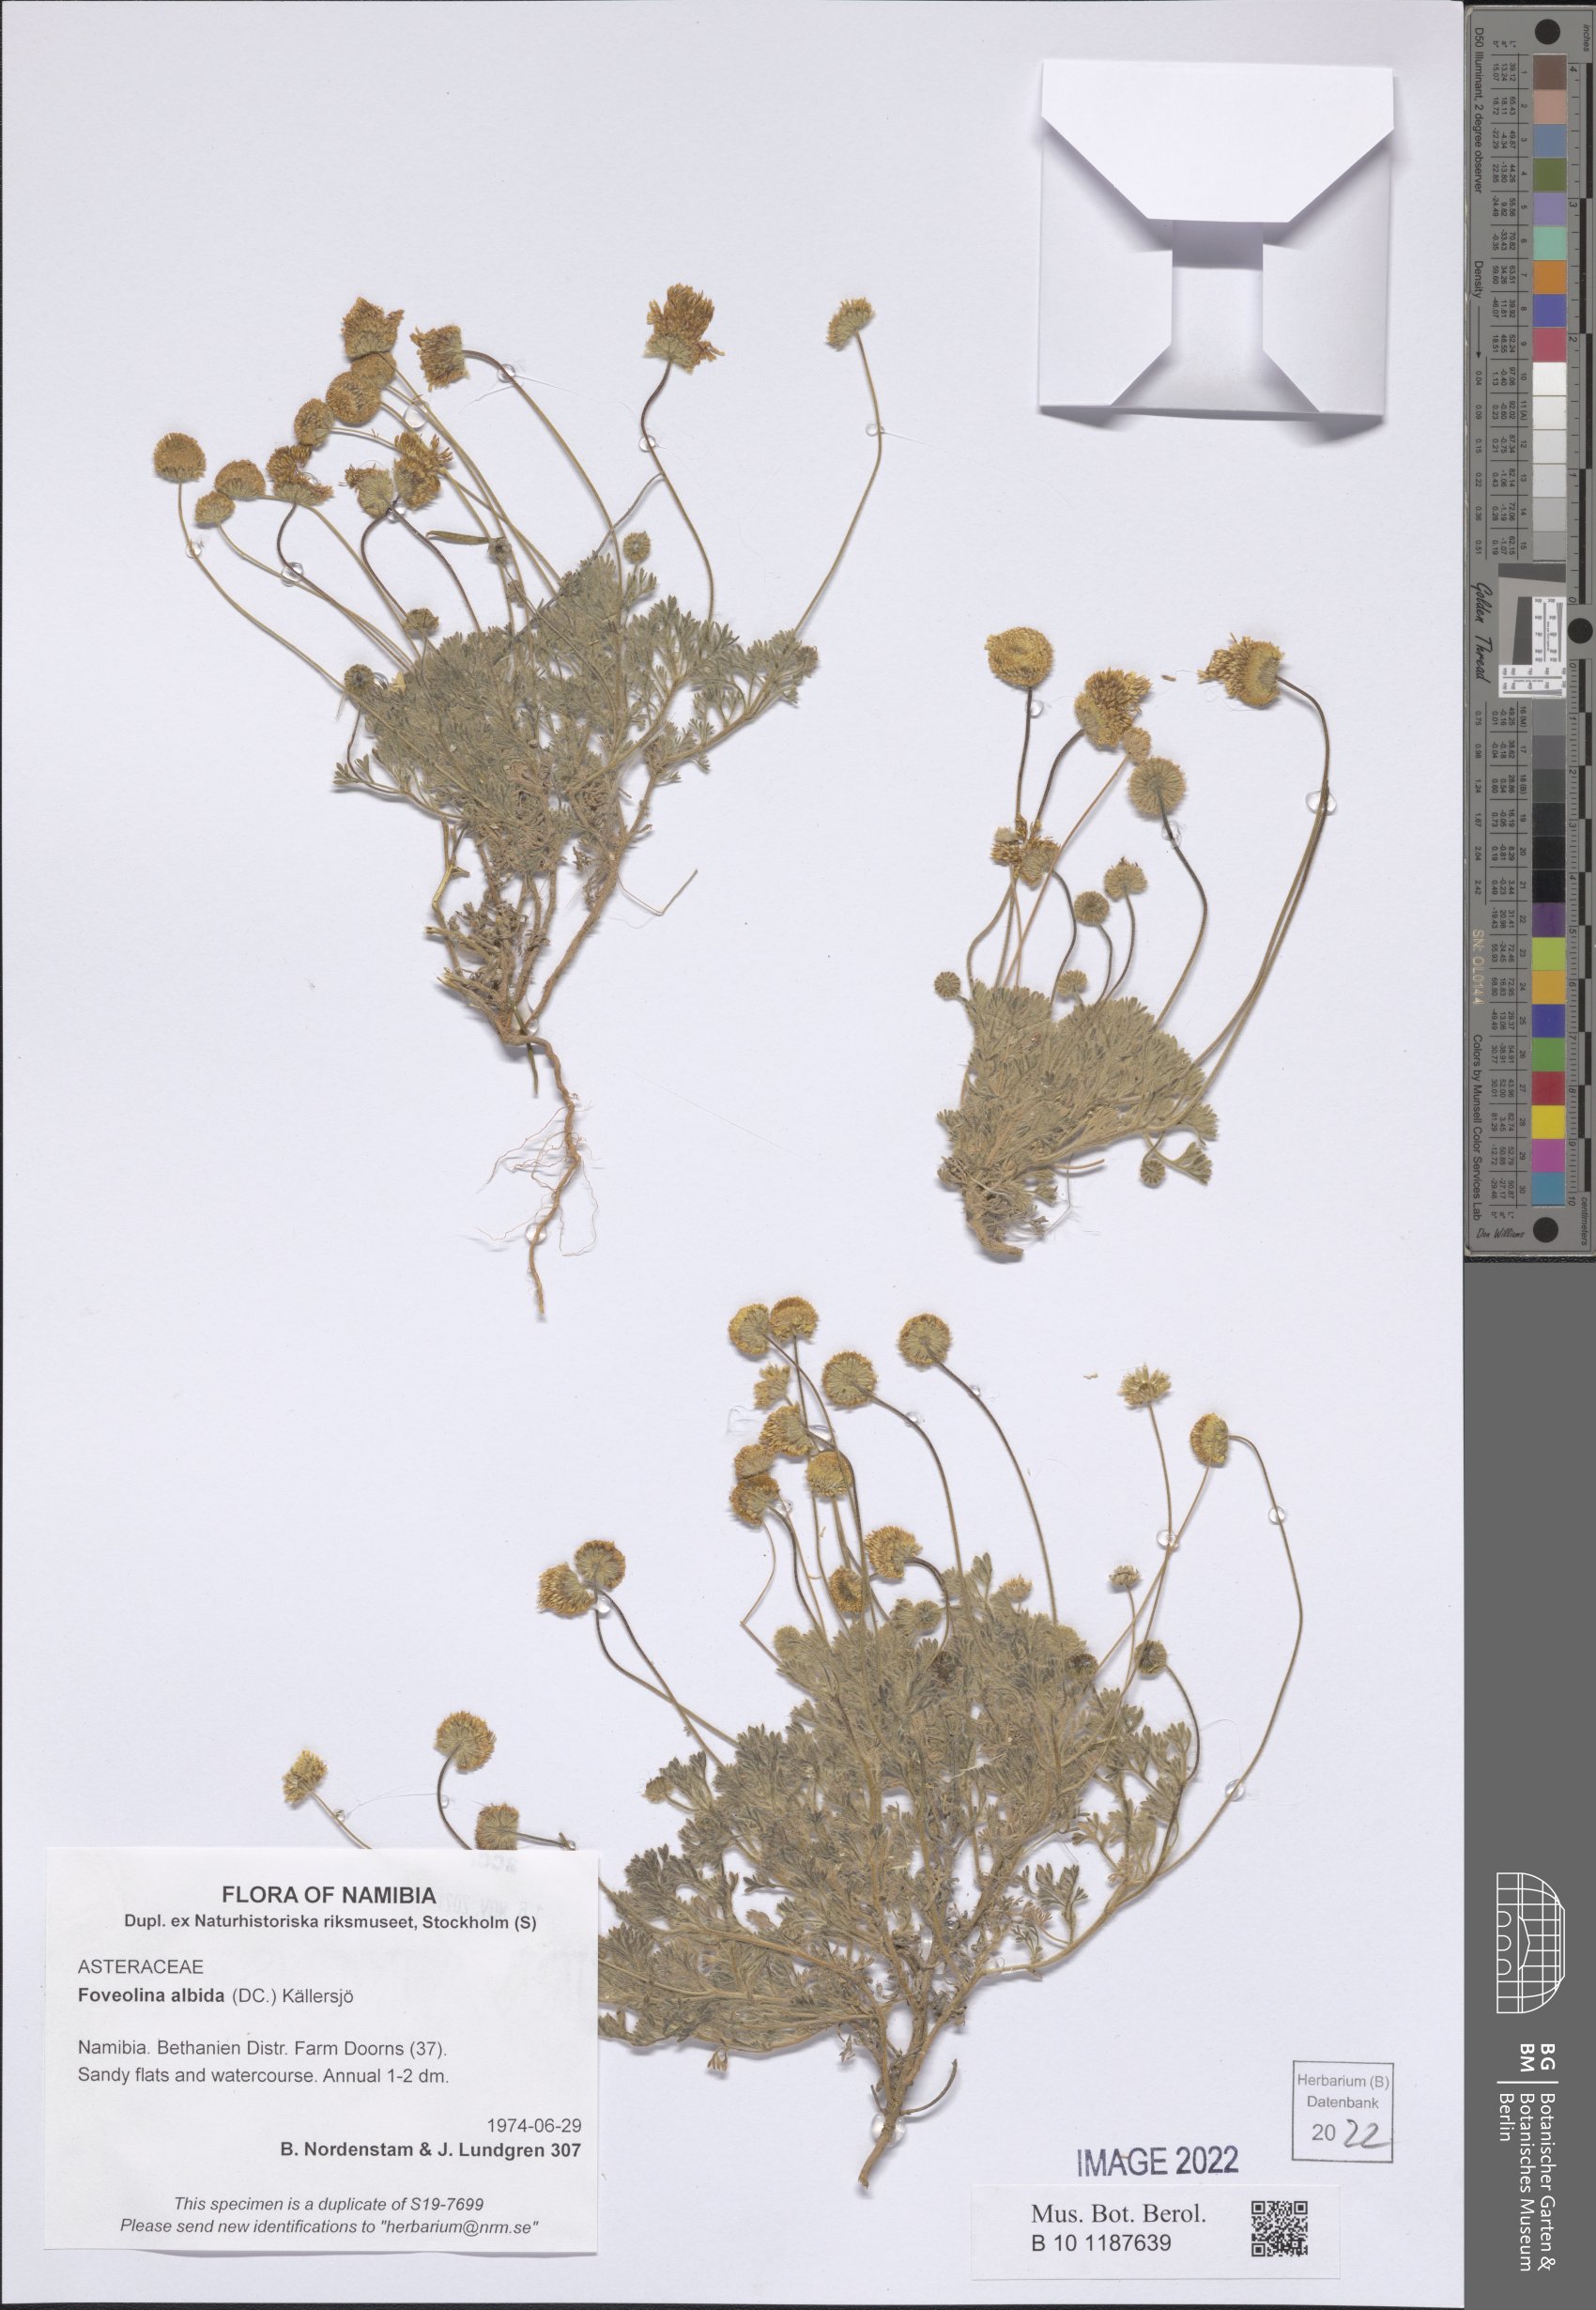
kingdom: Plantae
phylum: Tracheophyta
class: Magnoliopsida
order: Asterales
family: Asteraceae
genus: Foveolina
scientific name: Foveolina dichotoma
